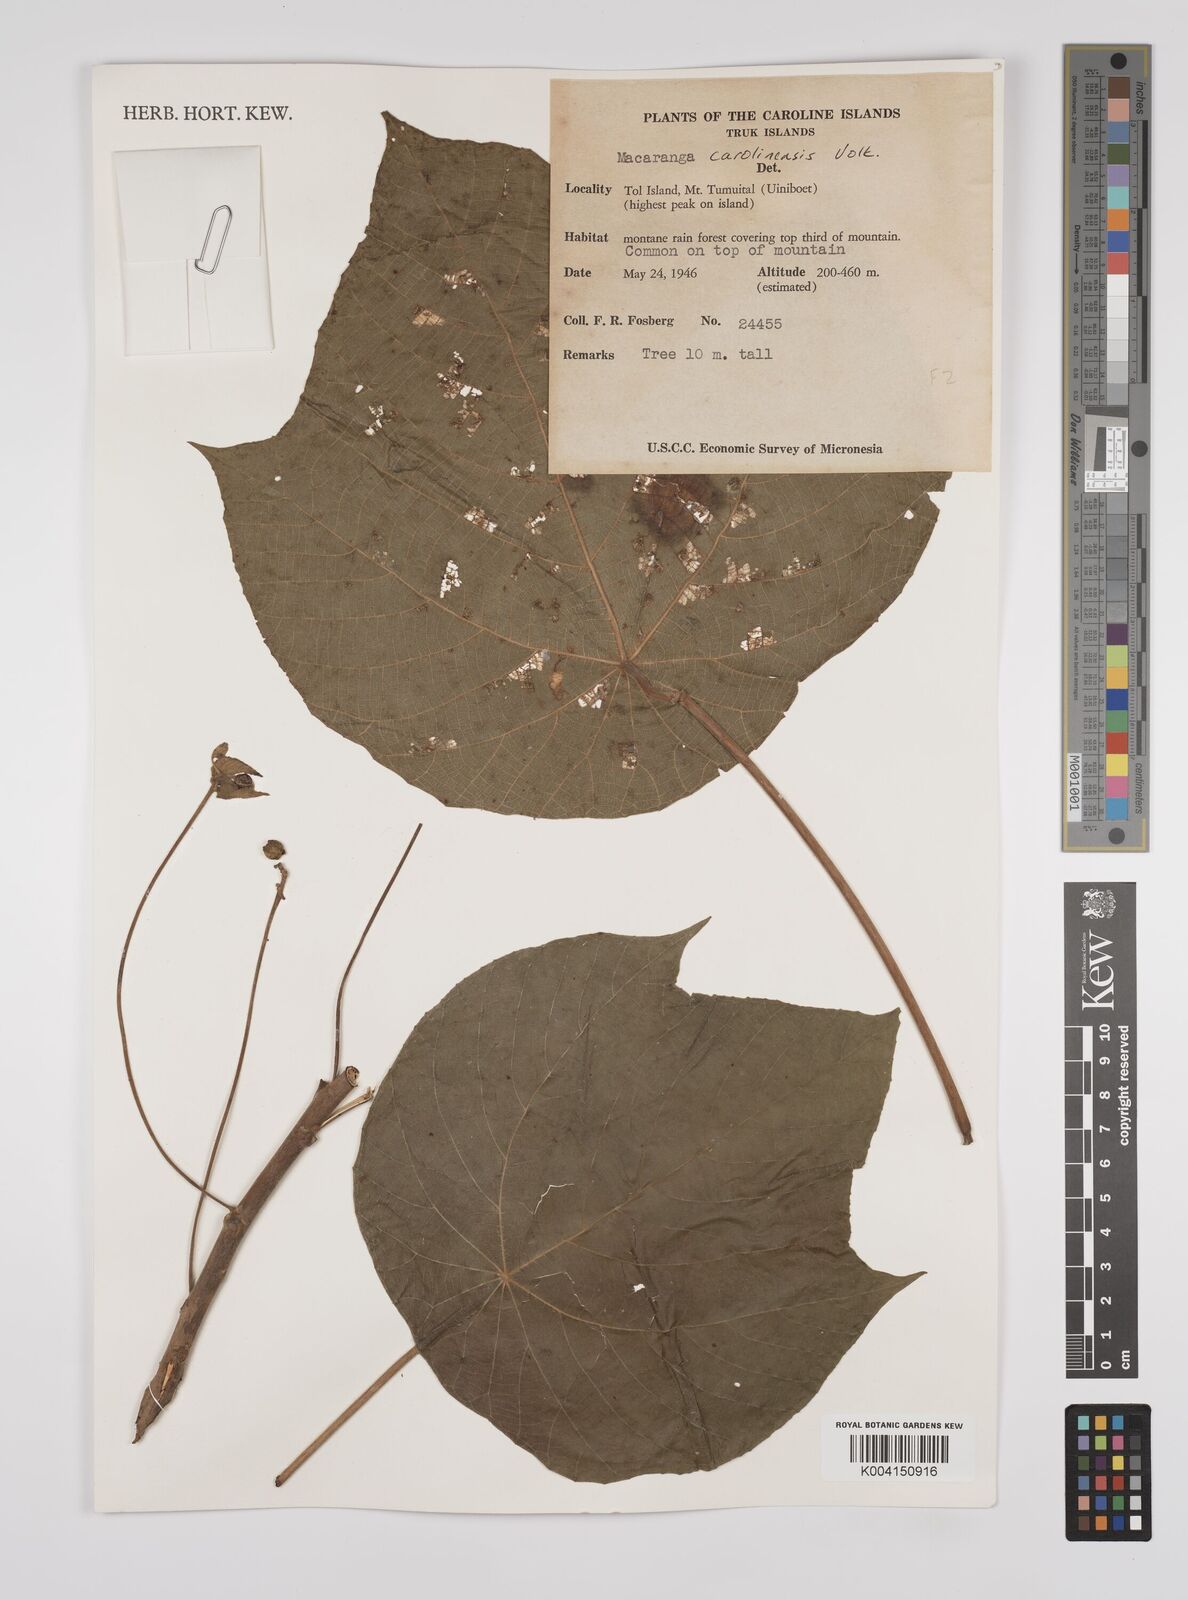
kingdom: Plantae
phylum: Tracheophyta
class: Magnoliopsida
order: Malpighiales
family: Euphorbiaceae
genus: Macaranga
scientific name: Macaranga carolinensis
